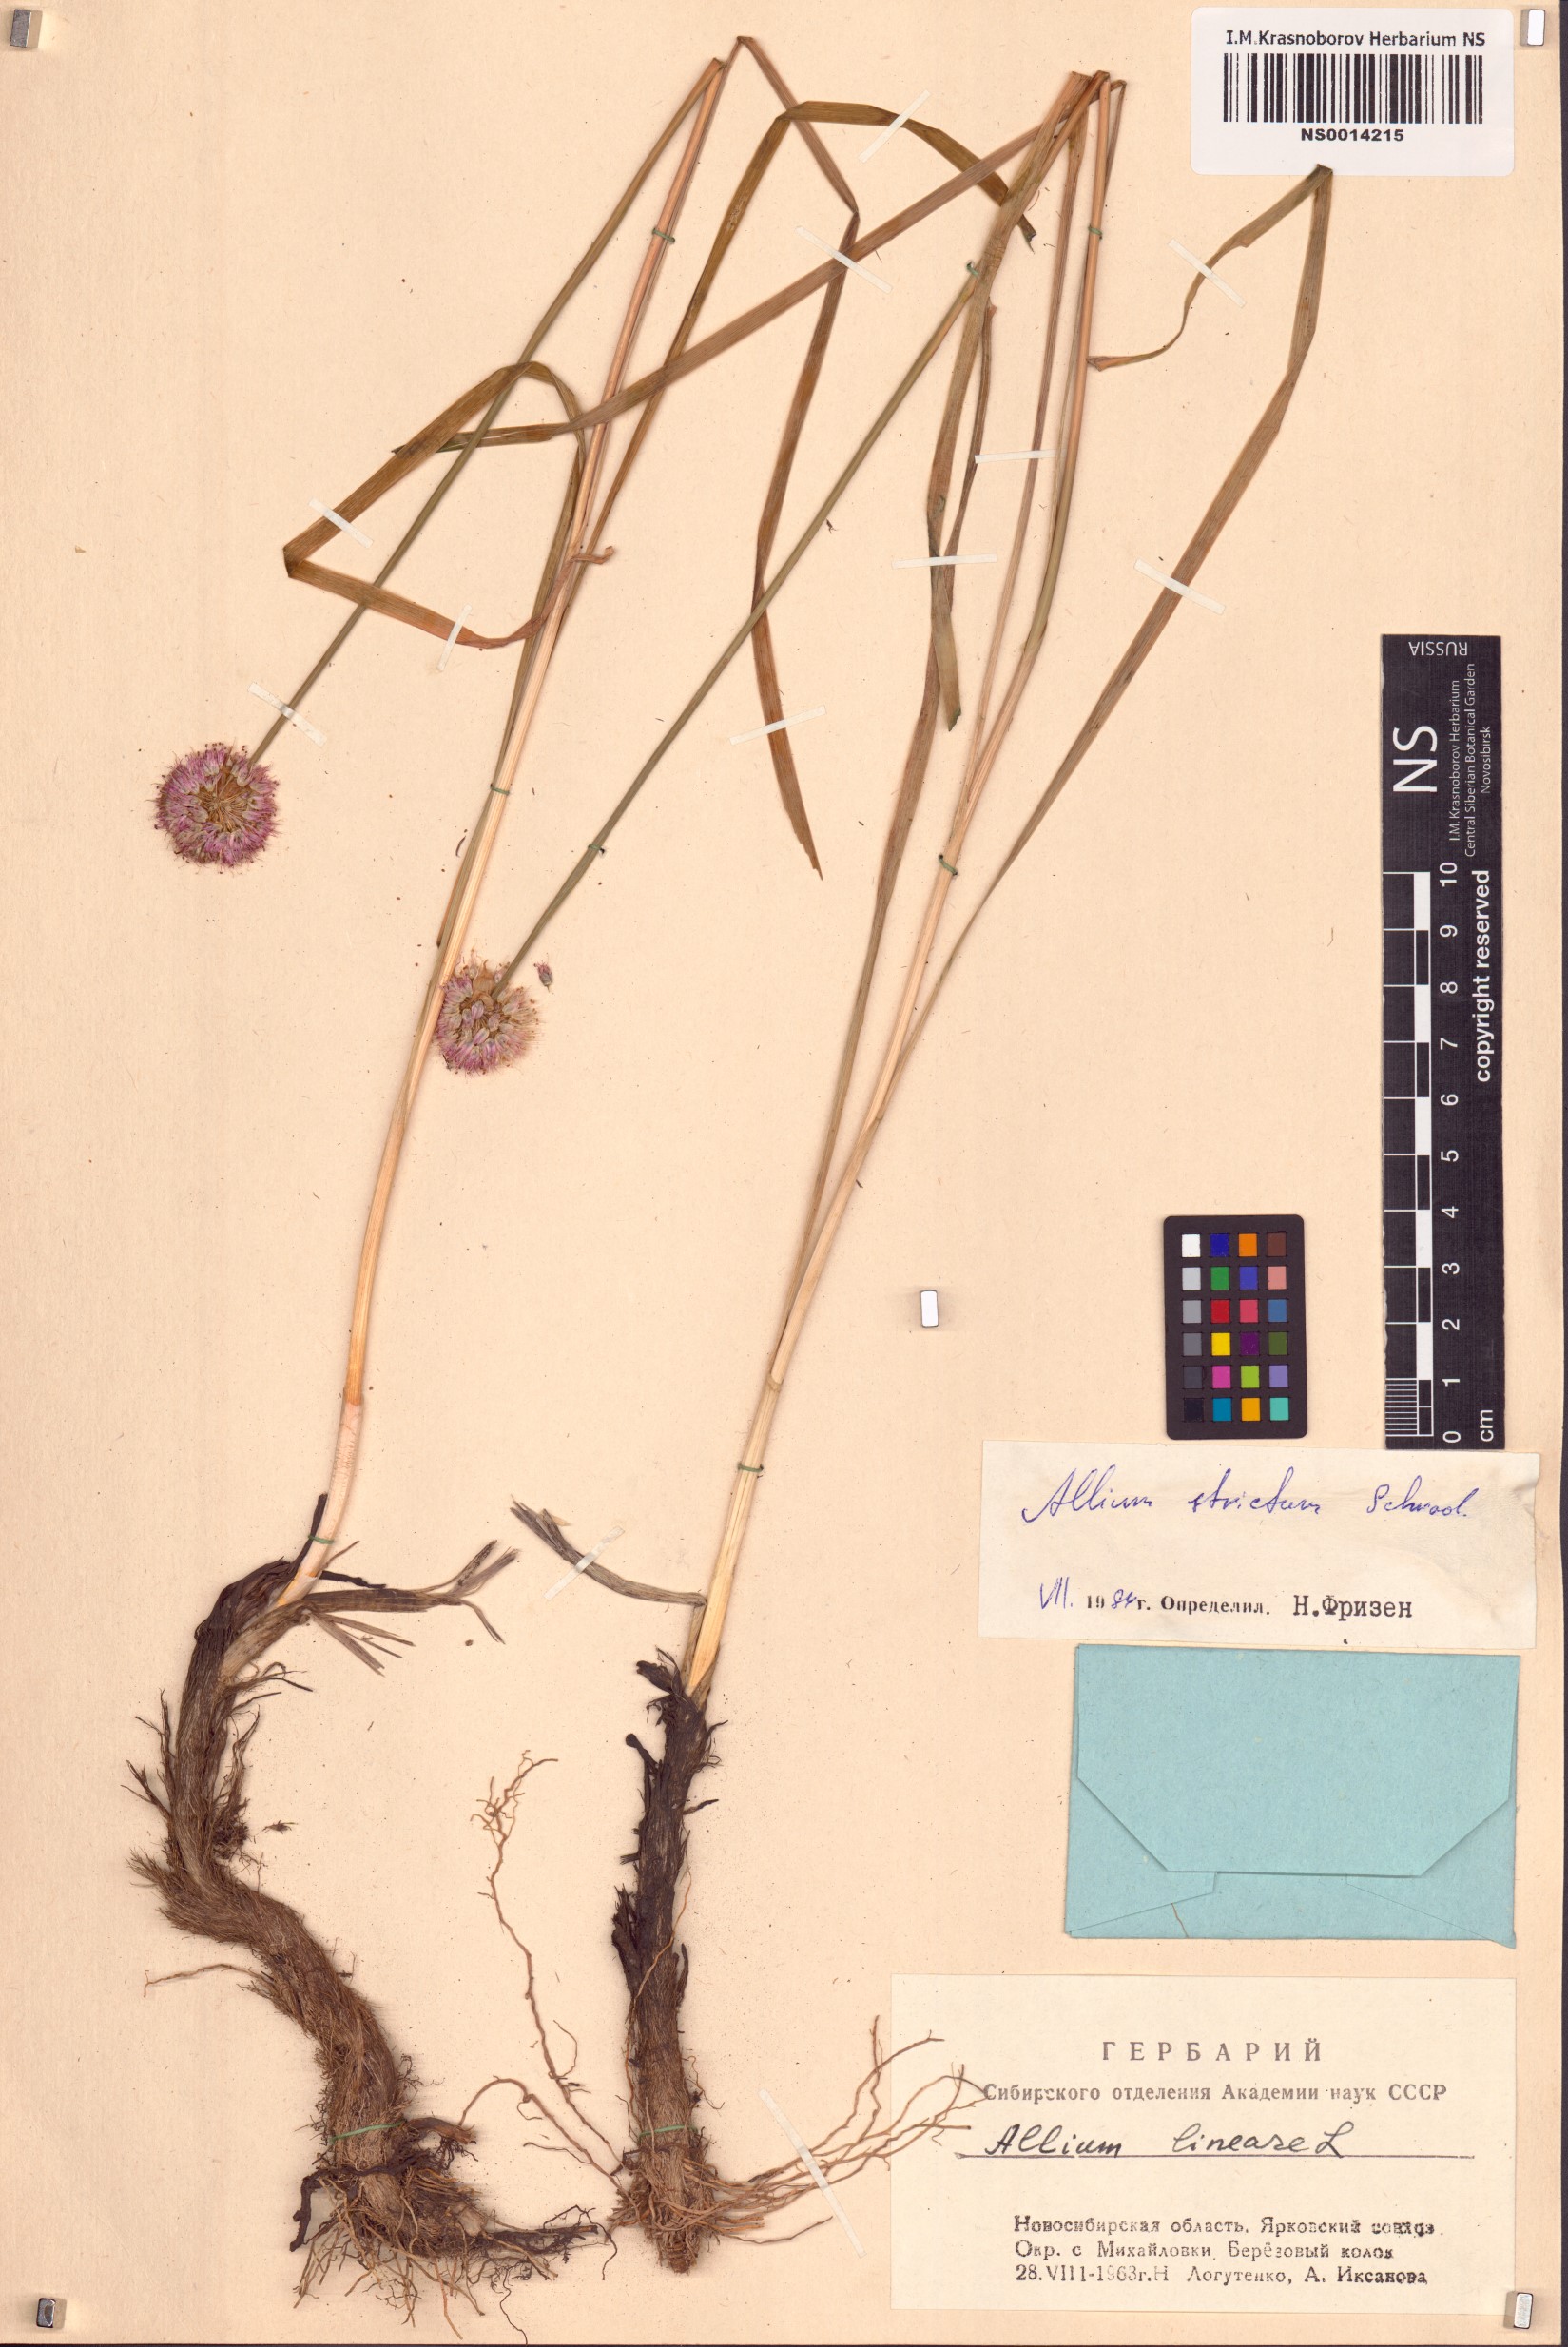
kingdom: Plantae
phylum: Tracheophyta
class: Liliopsida
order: Asparagales
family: Amaryllidaceae
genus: Allium
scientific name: Allium strictum
